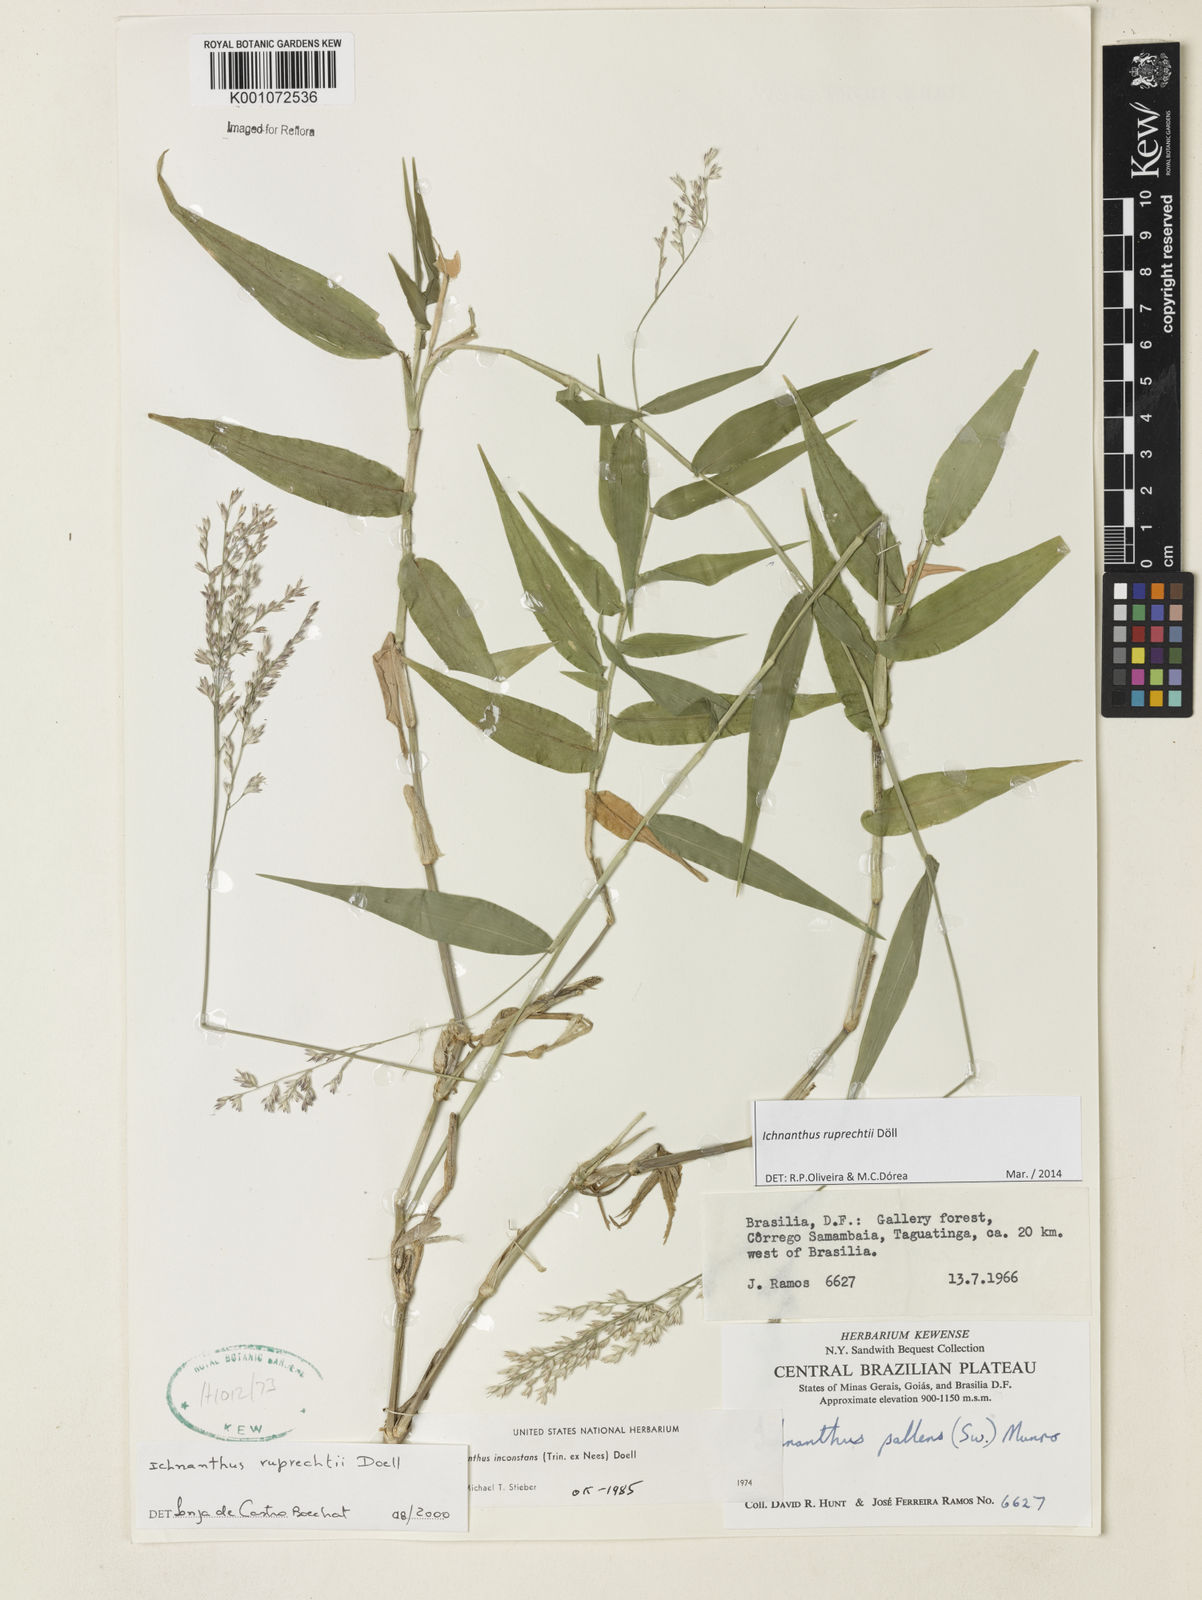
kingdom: Plantae
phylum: Tracheophyta
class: Liliopsida
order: Poales
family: Poaceae
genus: Ichnanthus
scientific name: Ichnanthus
